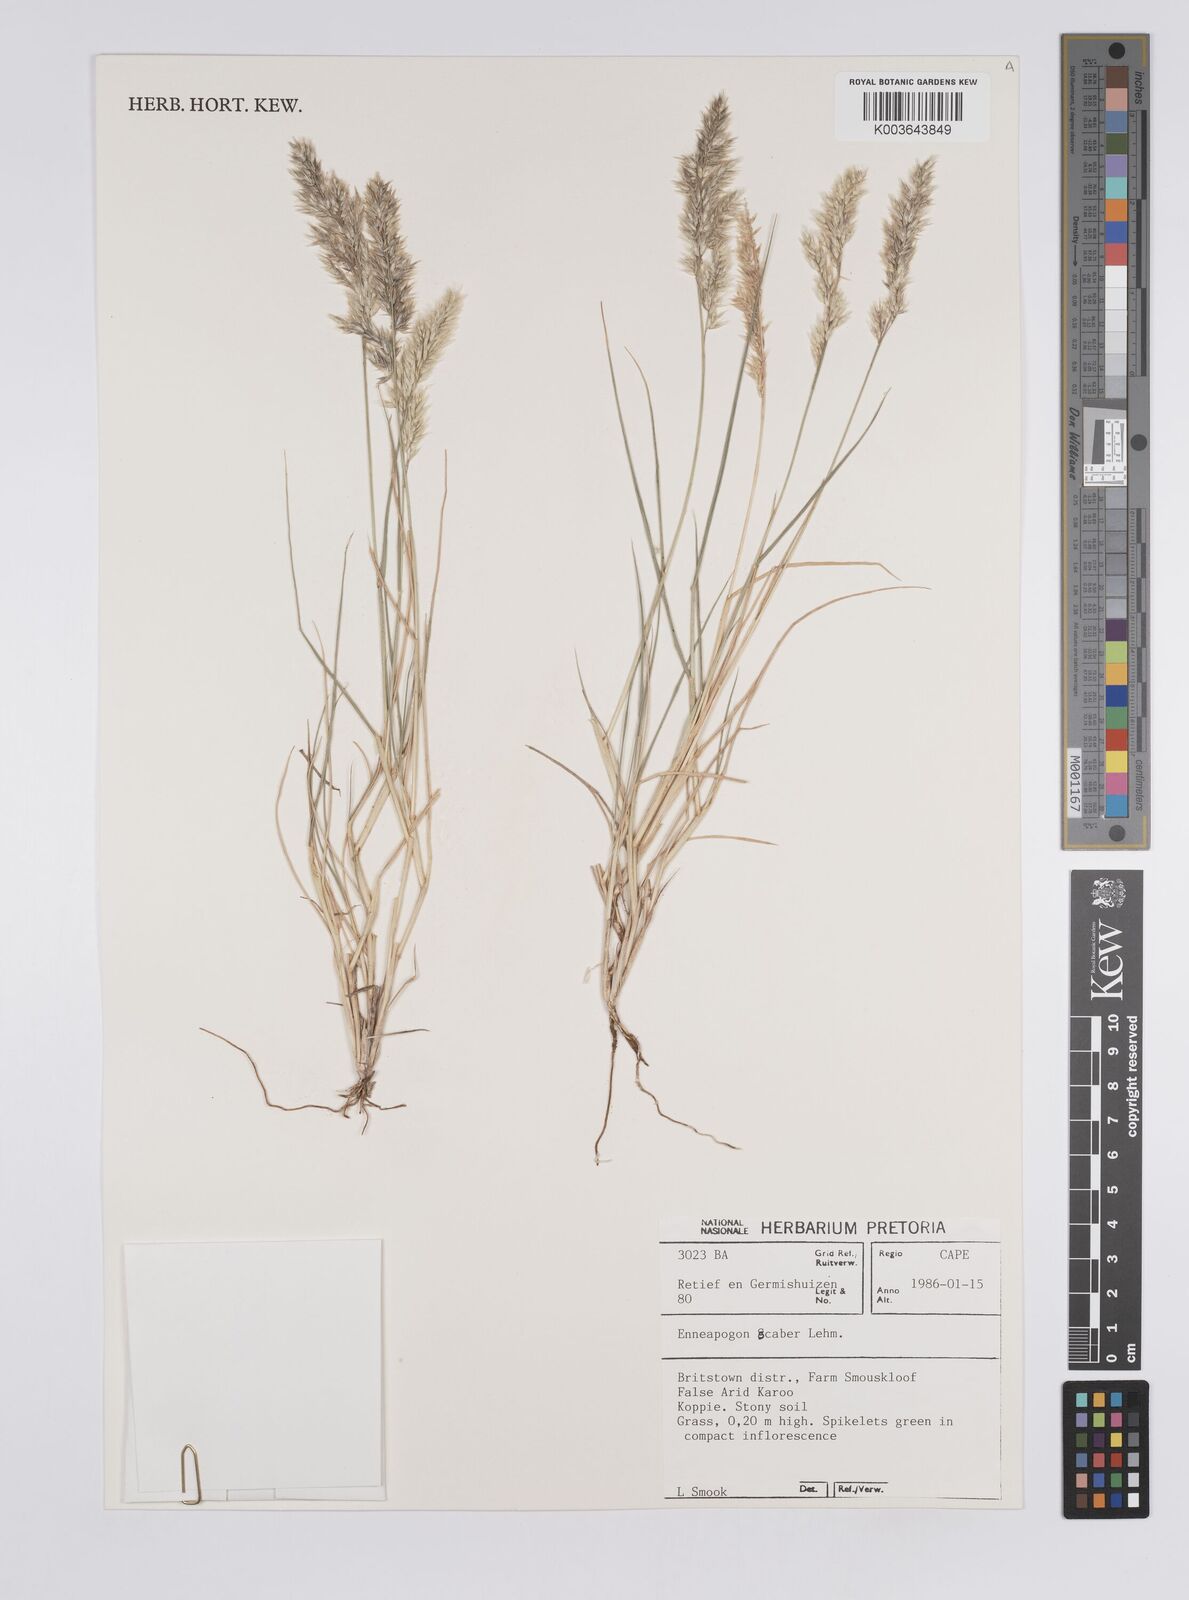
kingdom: Plantae
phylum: Tracheophyta
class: Liliopsida
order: Poales
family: Poaceae
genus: Enneapogon
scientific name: Enneapogon scaber
